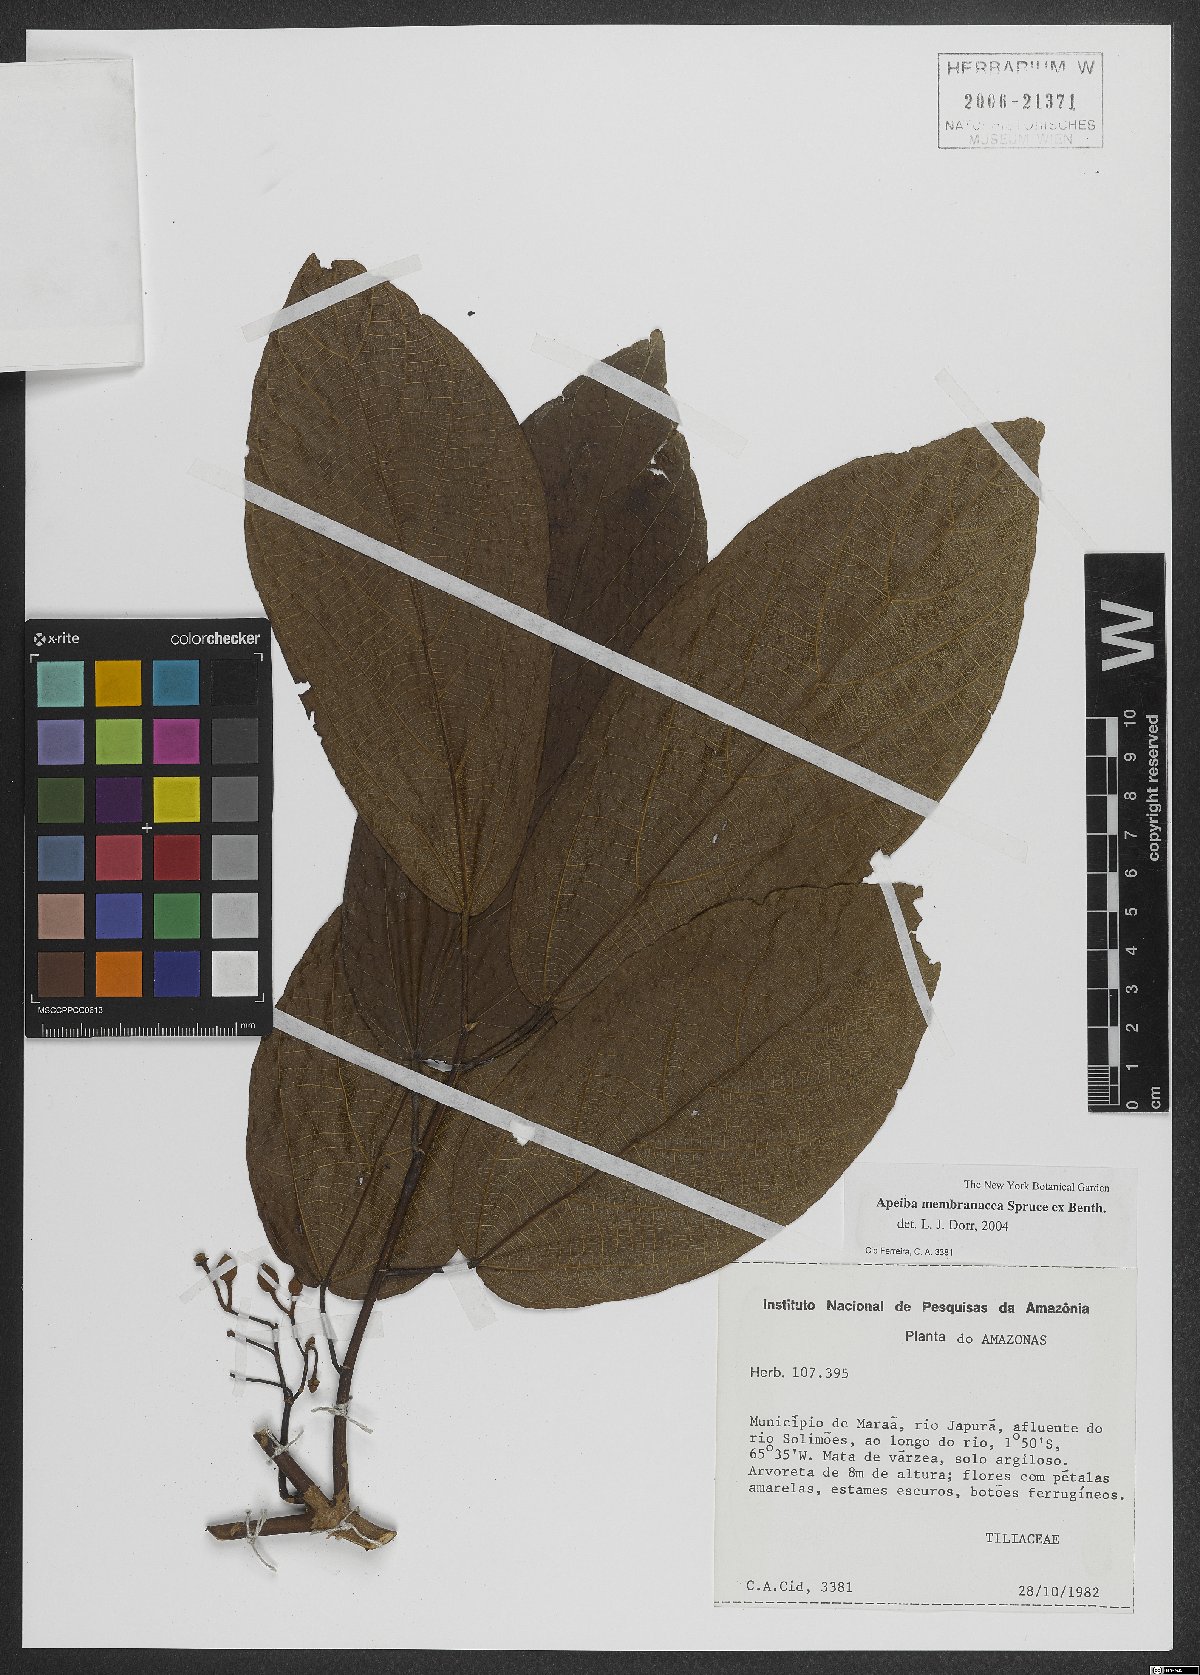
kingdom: Plantae
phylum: Tracheophyta
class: Magnoliopsida
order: Malvales
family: Malvaceae
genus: Apeiba
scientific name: Apeiba membranacea
